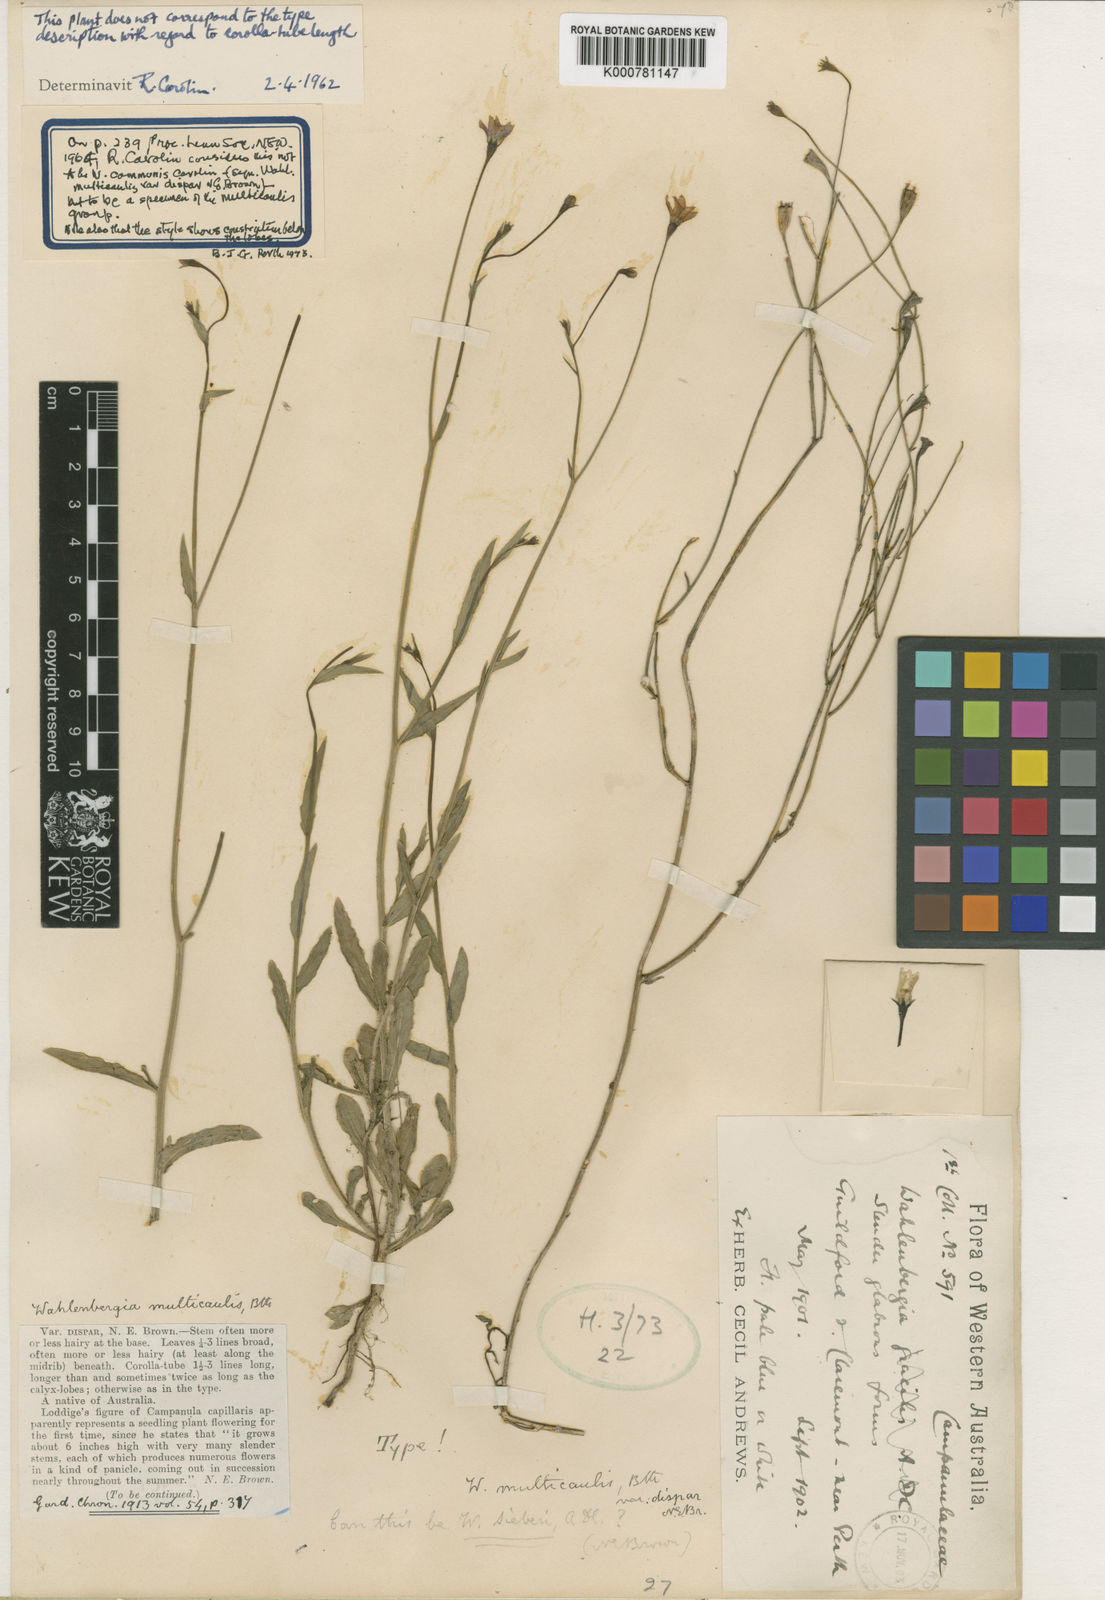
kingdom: Plantae
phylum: Tracheophyta
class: Magnoliopsida
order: Asterales
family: Campanulaceae
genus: Wahlenbergia
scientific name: Wahlenbergia multicaulis
